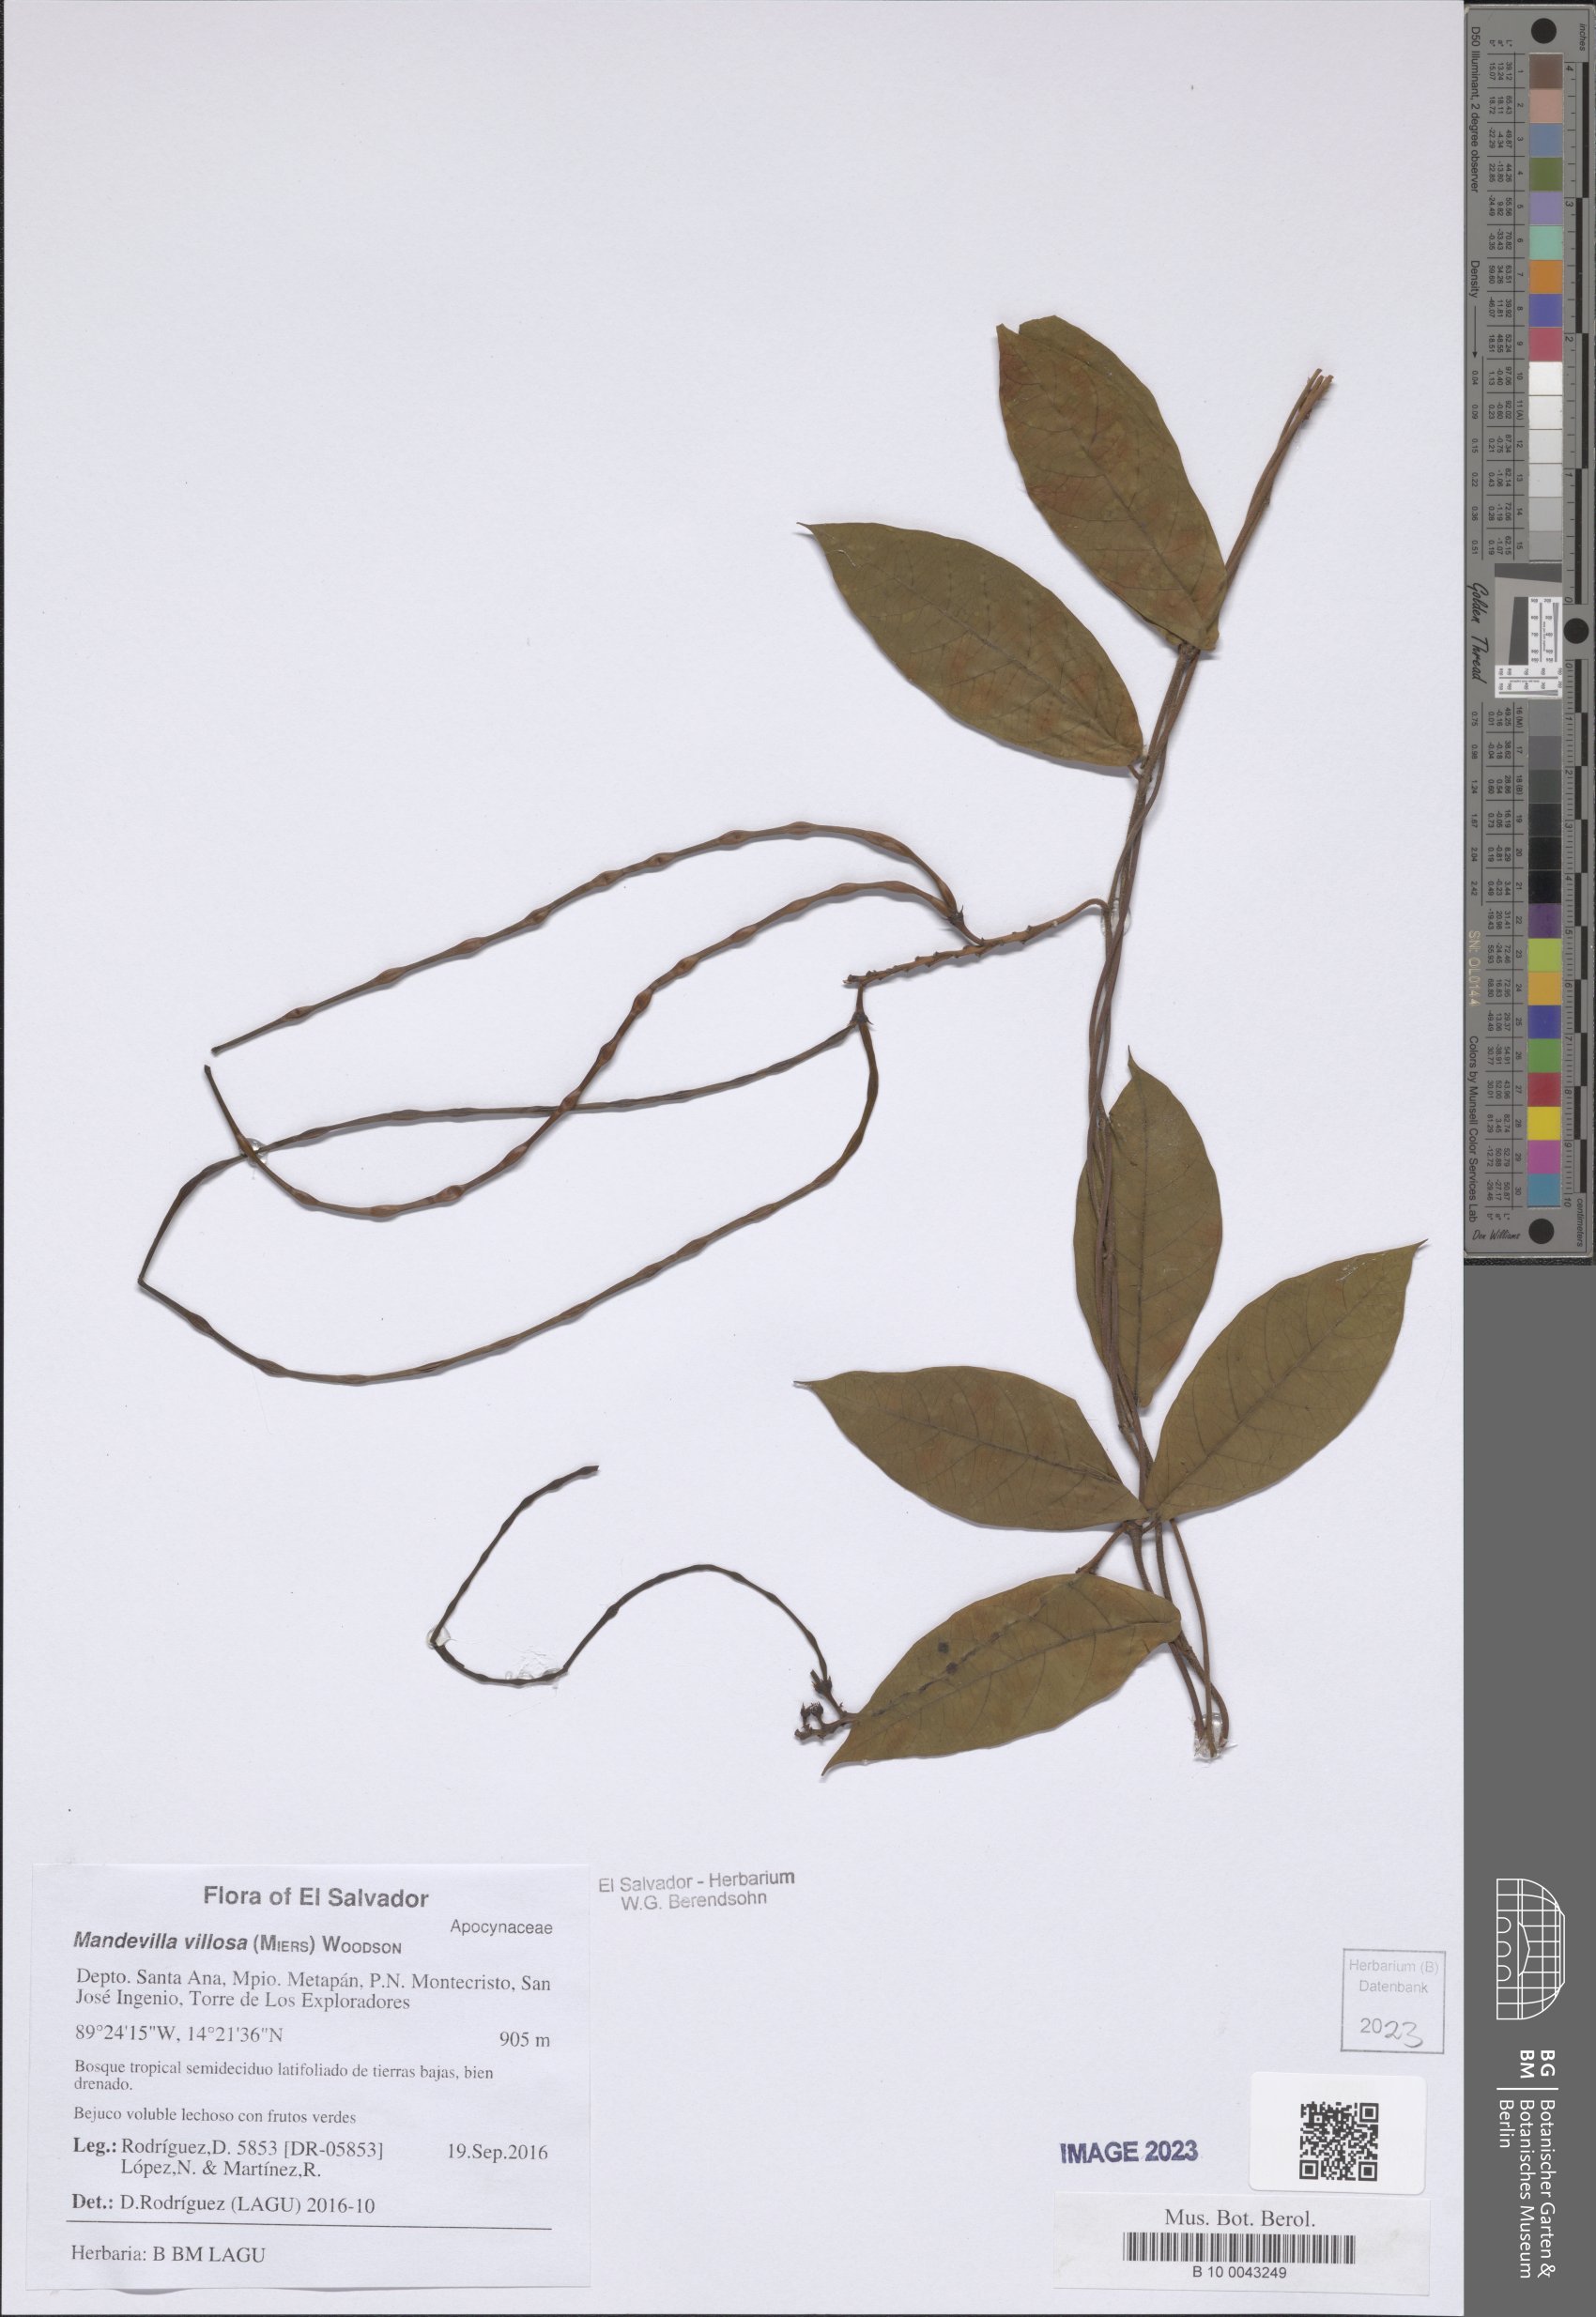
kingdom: Plantae
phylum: Tracheophyta
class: Magnoliopsida
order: Gentianales
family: Apocynaceae
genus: Mandevilla
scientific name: Mandevilla villosa
